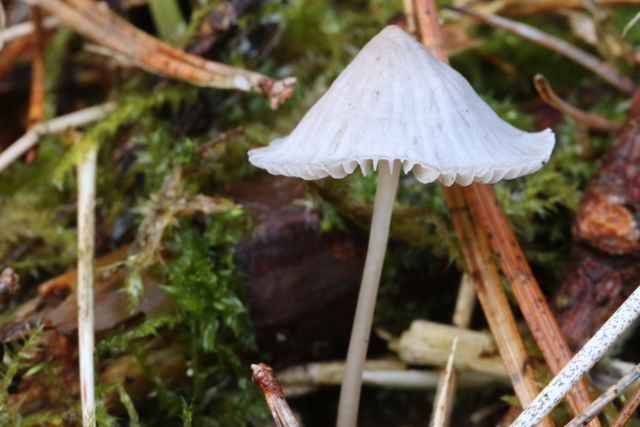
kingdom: Fungi
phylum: Basidiomycota
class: Agaricomycetes
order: Agaricales
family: Mycenaceae
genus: Mycena
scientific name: Mycena cinerella
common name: mel-huesvamp
